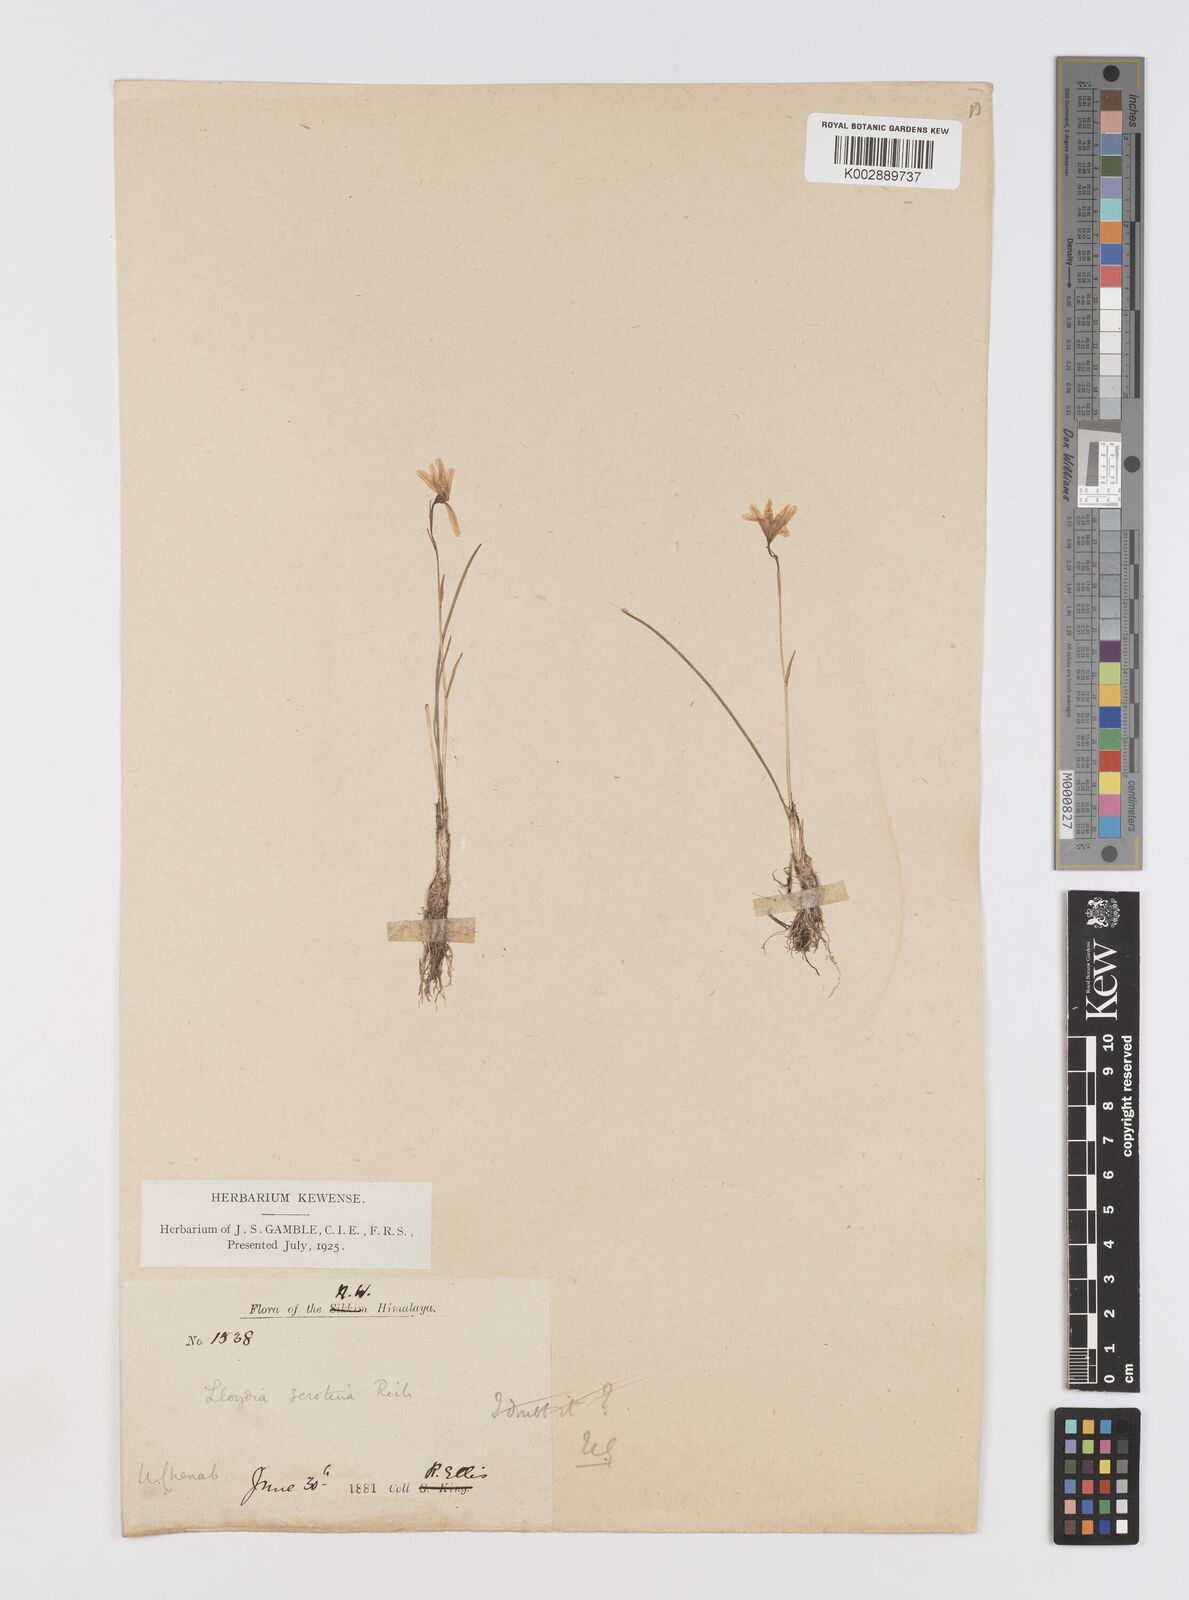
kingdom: Plantae
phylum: Tracheophyta
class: Liliopsida
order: Liliales
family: Liliaceae
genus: Gagea
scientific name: Gagea serotina
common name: Snowdon lily
